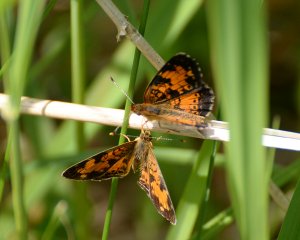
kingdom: Animalia
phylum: Arthropoda
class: Insecta
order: Lepidoptera
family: Nymphalidae
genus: Phyciodes
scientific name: Phyciodes tharos
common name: Northern Crescent
